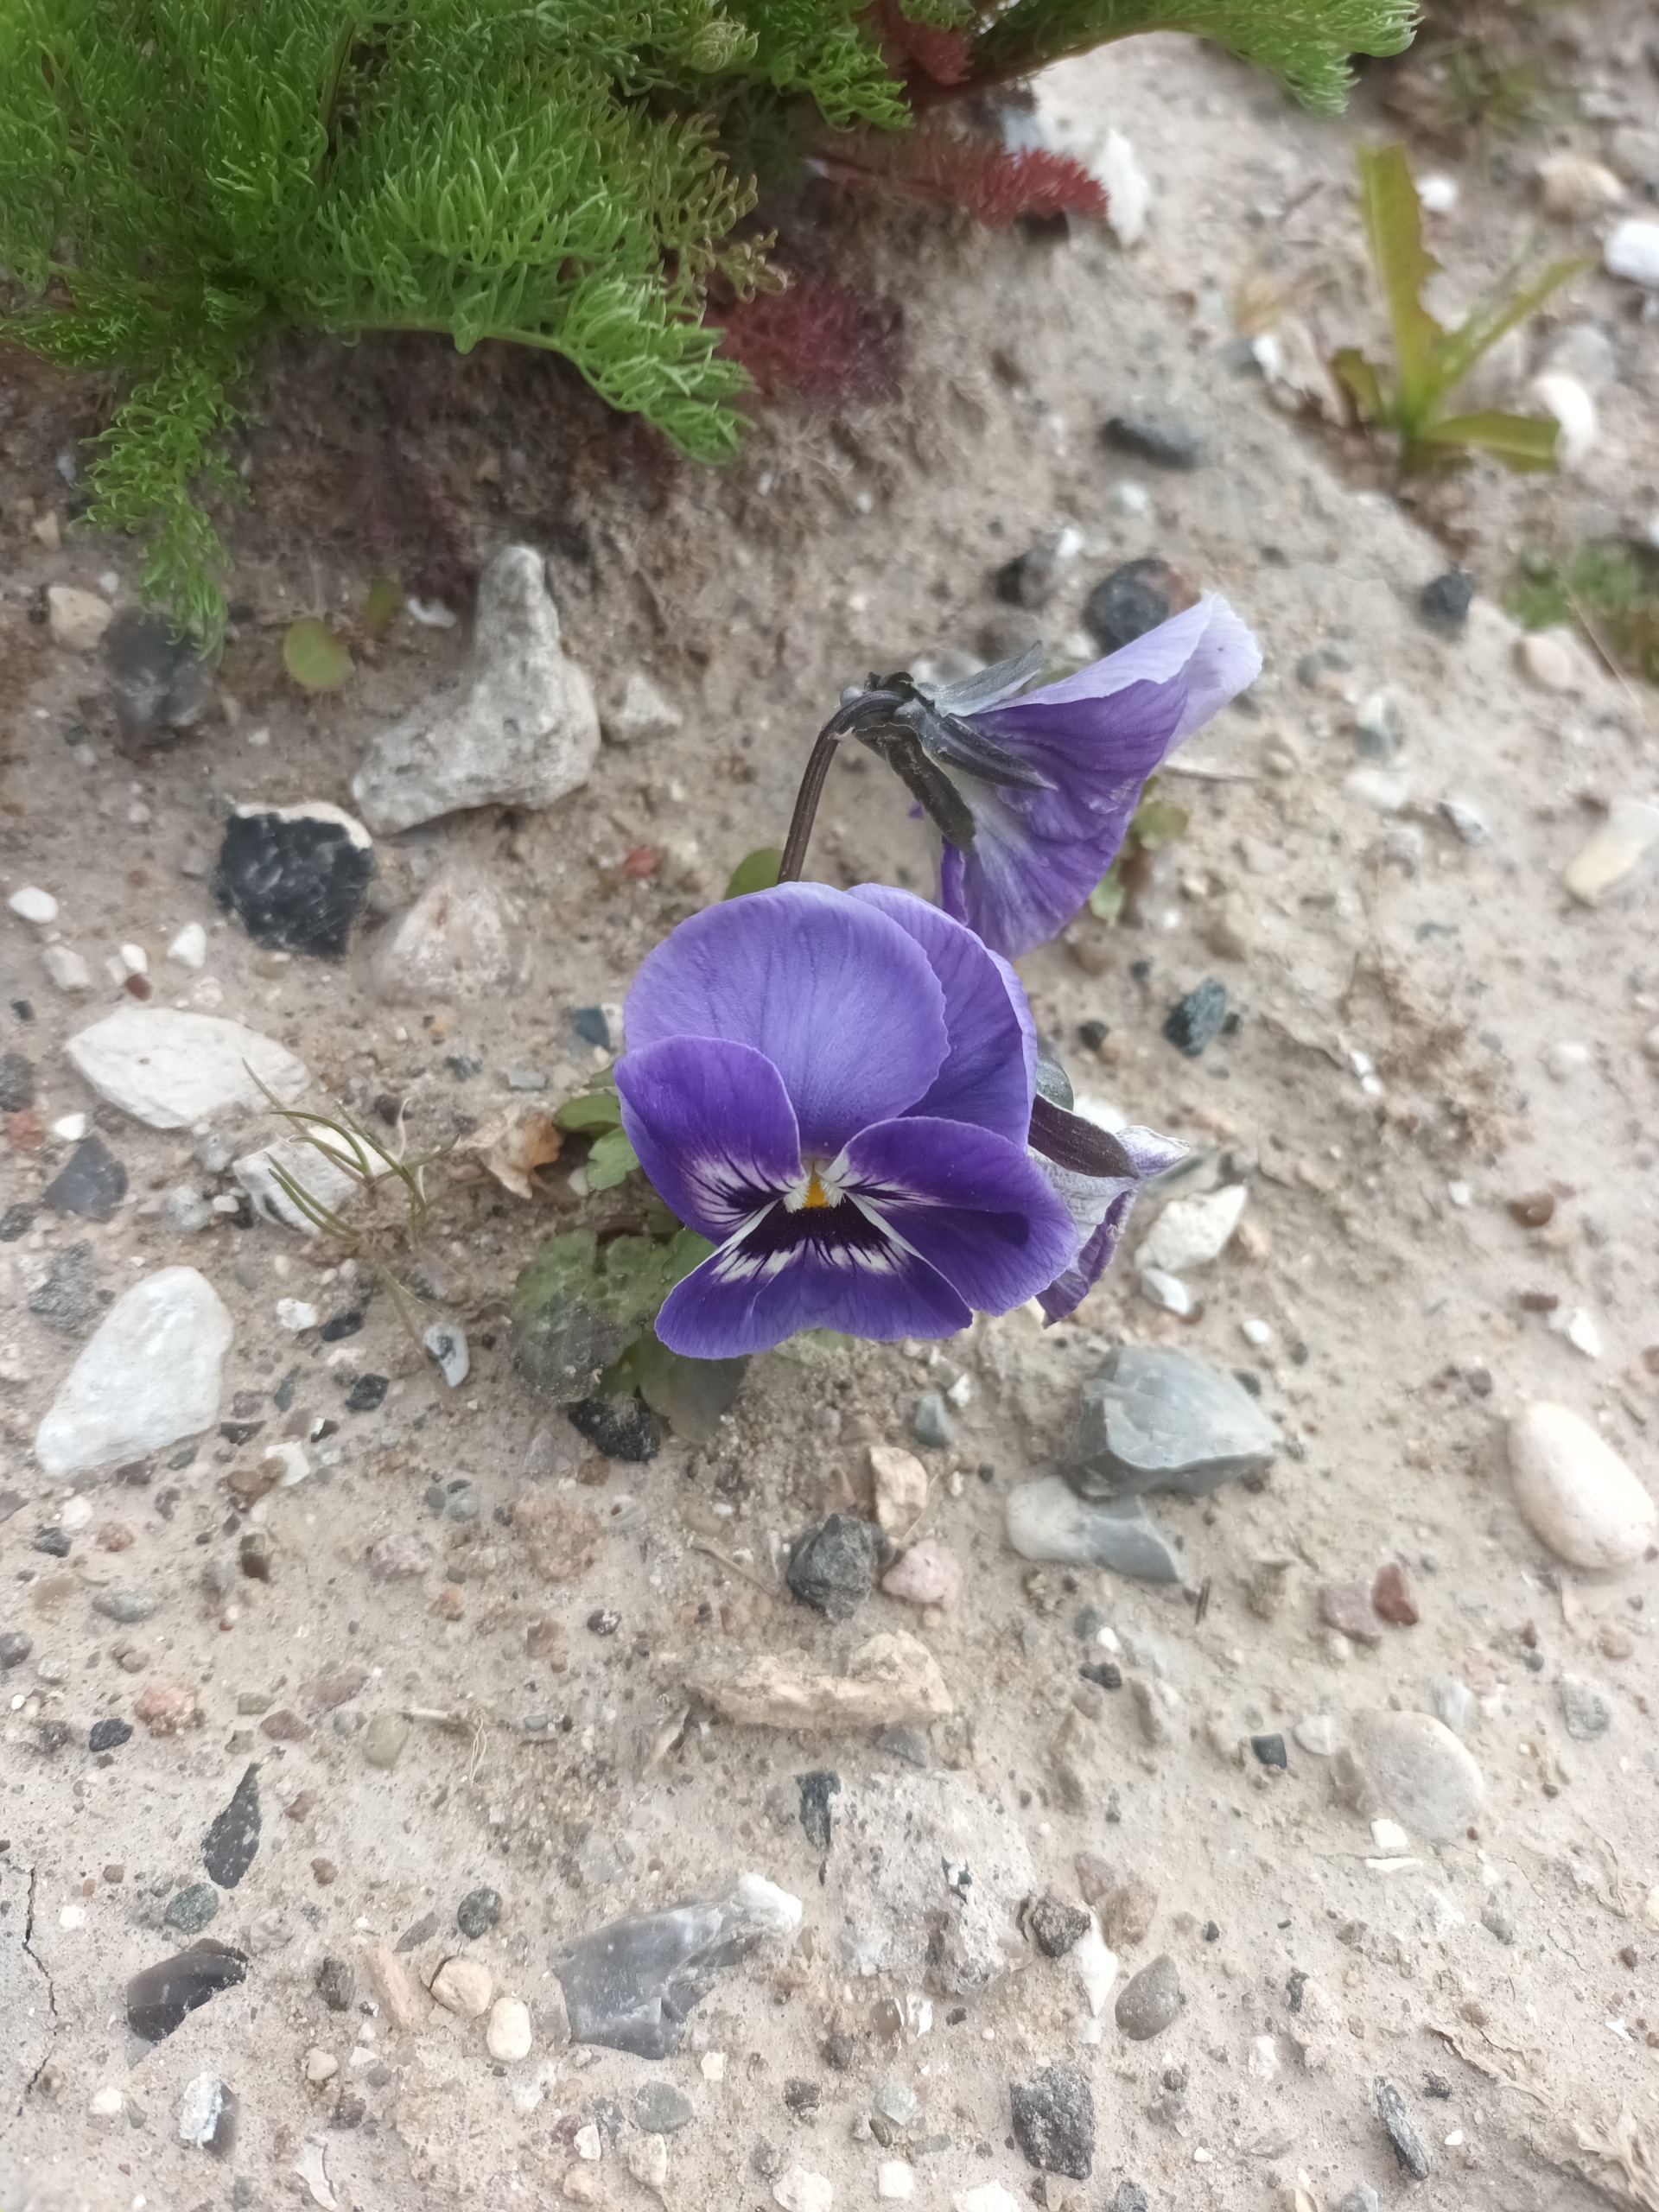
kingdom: Plantae
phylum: Tracheophyta
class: Magnoliopsida
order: Malpighiales
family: Violaceae
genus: Viola
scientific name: Viola wittrockiana
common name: Have-stedmoderblomst
